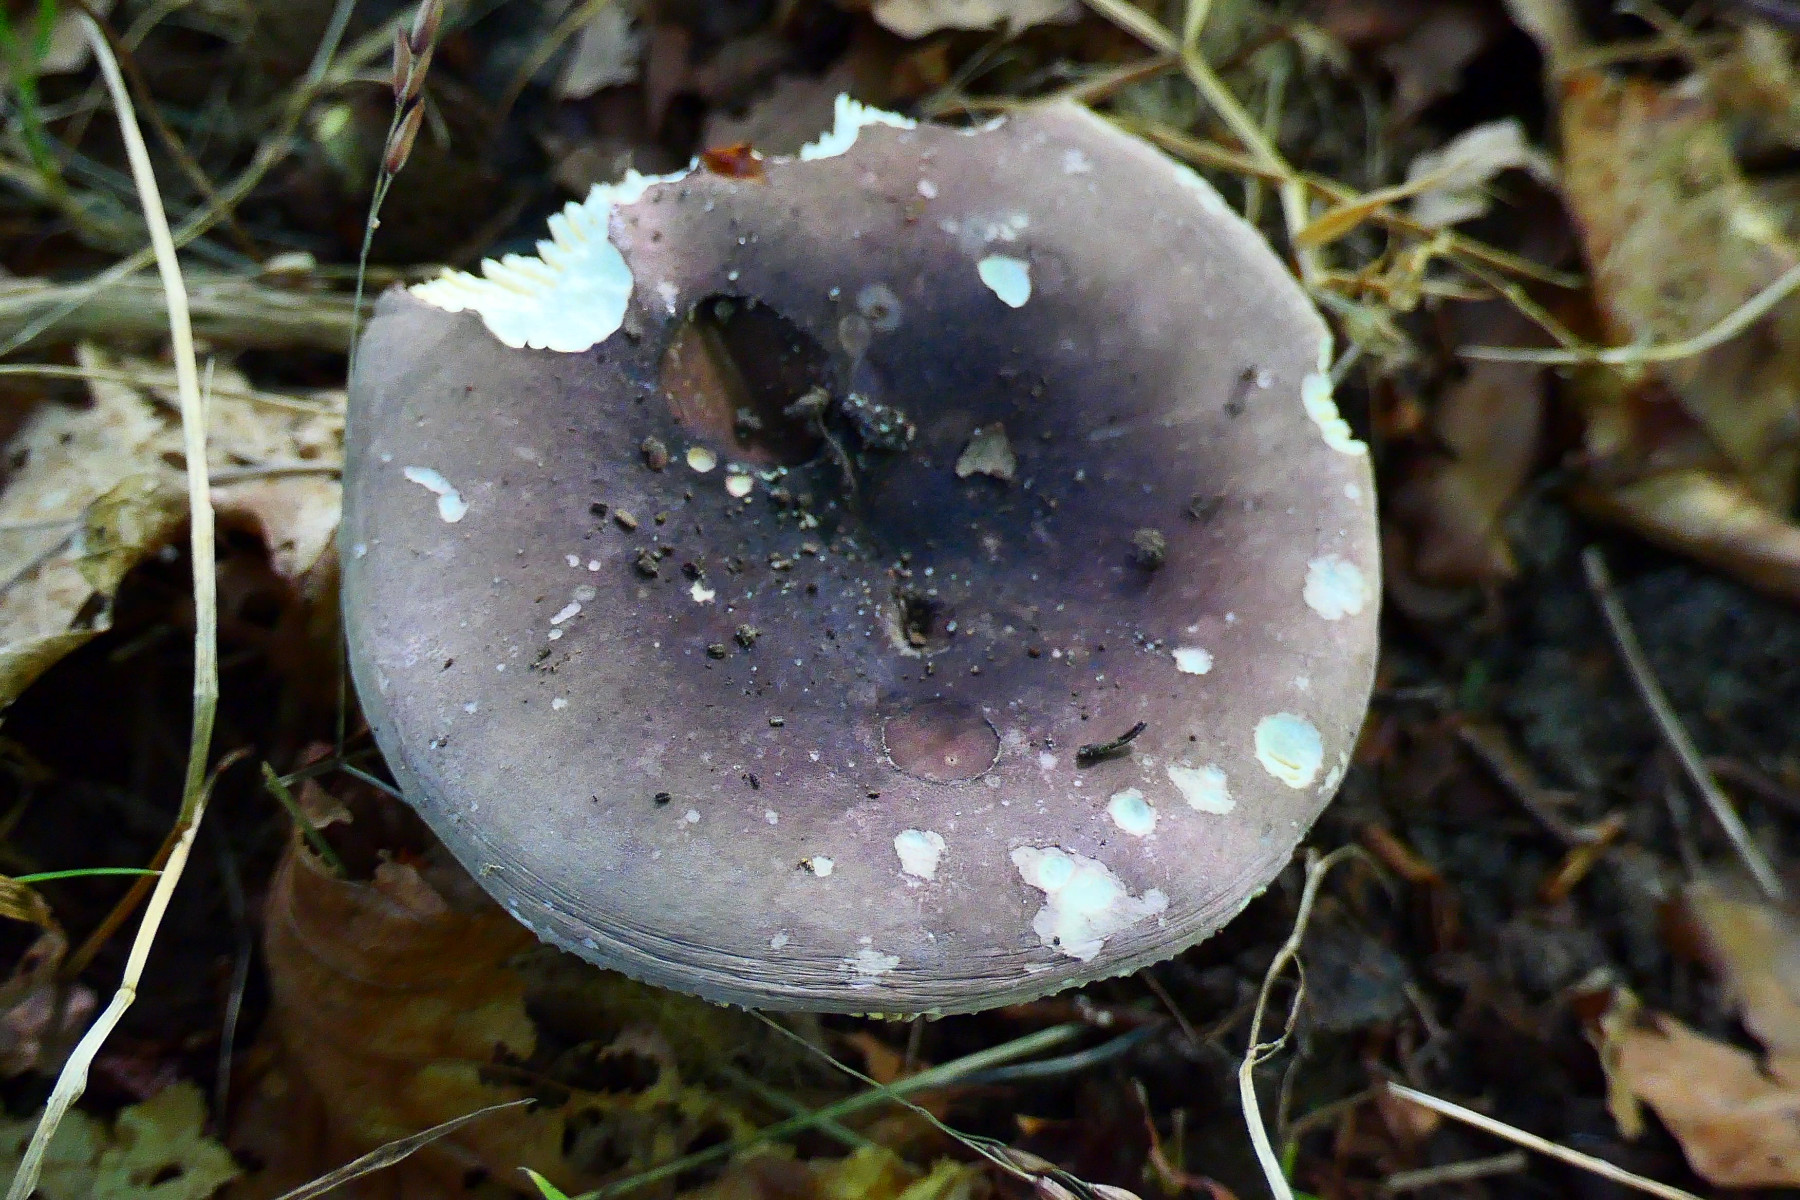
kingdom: Fungi
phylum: Basidiomycota
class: Agaricomycetes
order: Russulales
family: Russulaceae
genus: Russula
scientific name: Russula olivacea
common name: stor skørhat
